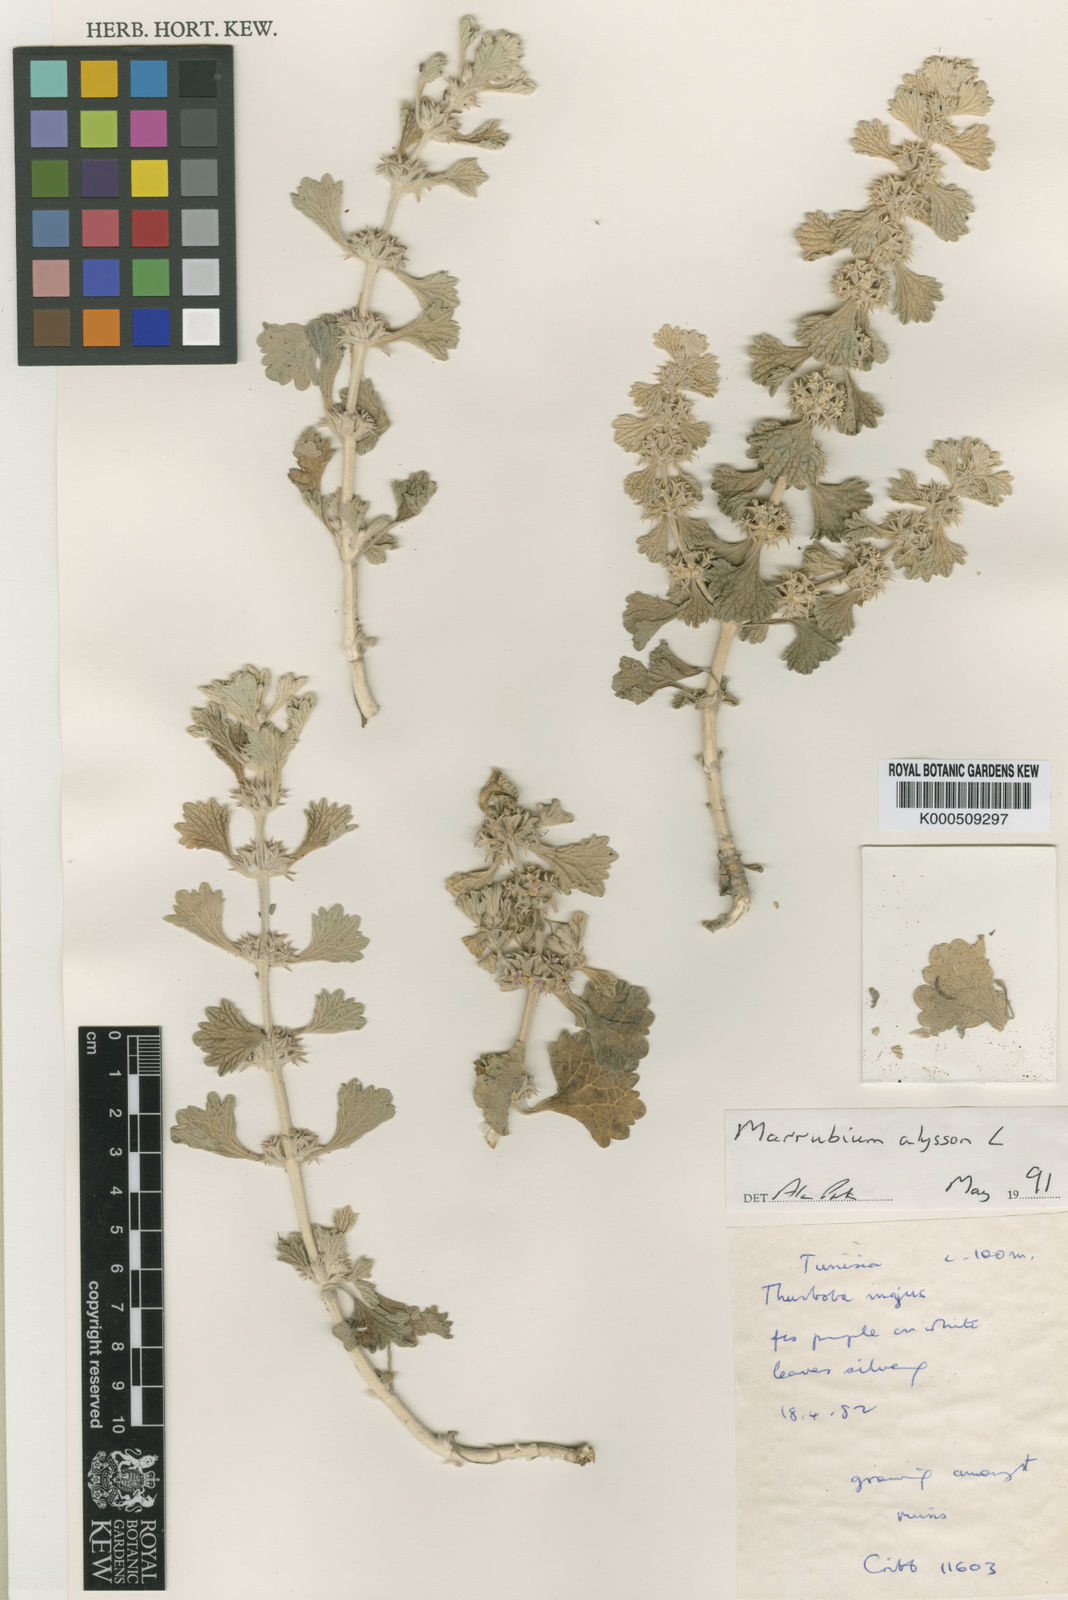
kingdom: Plantae
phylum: Tracheophyta
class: Magnoliopsida
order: Lamiales
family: Lamiaceae
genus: Marrubium
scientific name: Marrubium alysson
